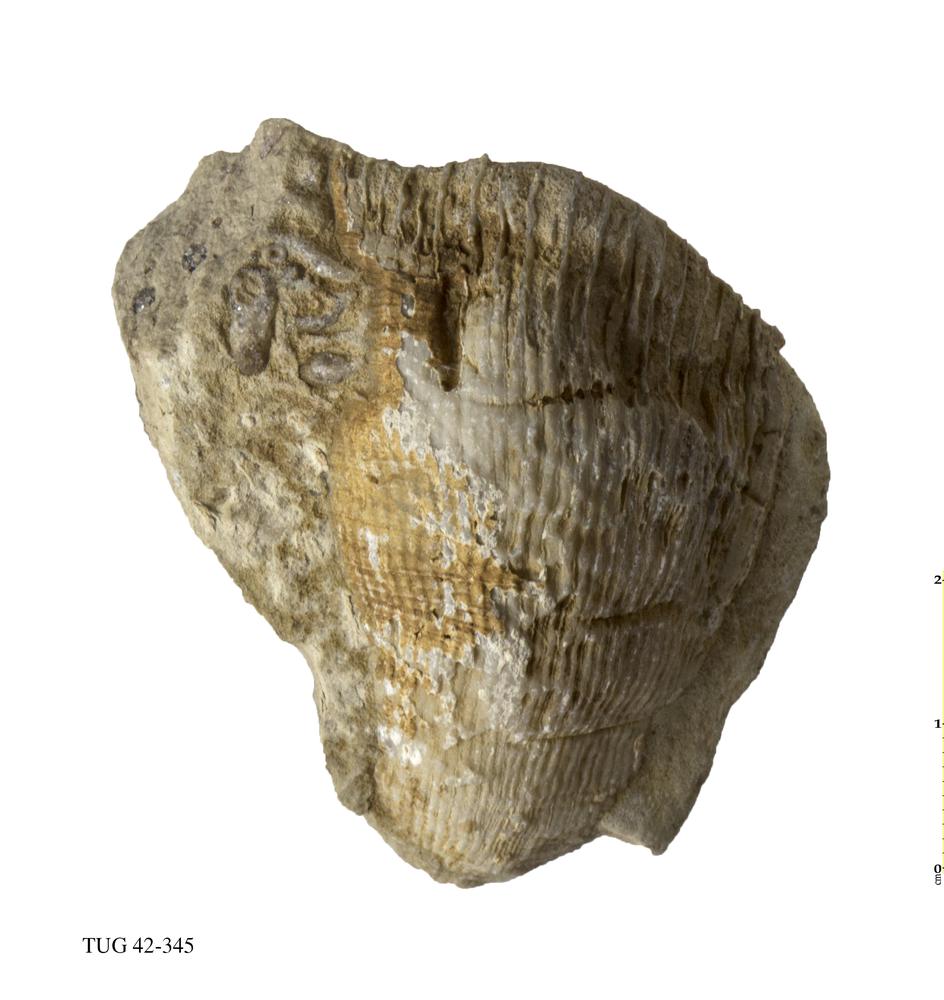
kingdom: Animalia
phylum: Cnidaria
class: Anthozoa
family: Streptelasmatidae
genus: Streptelasma
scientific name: Streptelasma corniculum
